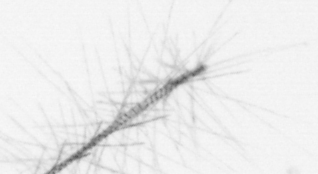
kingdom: Chromista
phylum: Ochrophyta
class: Bacillariophyceae
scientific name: Bacillariophyceae
